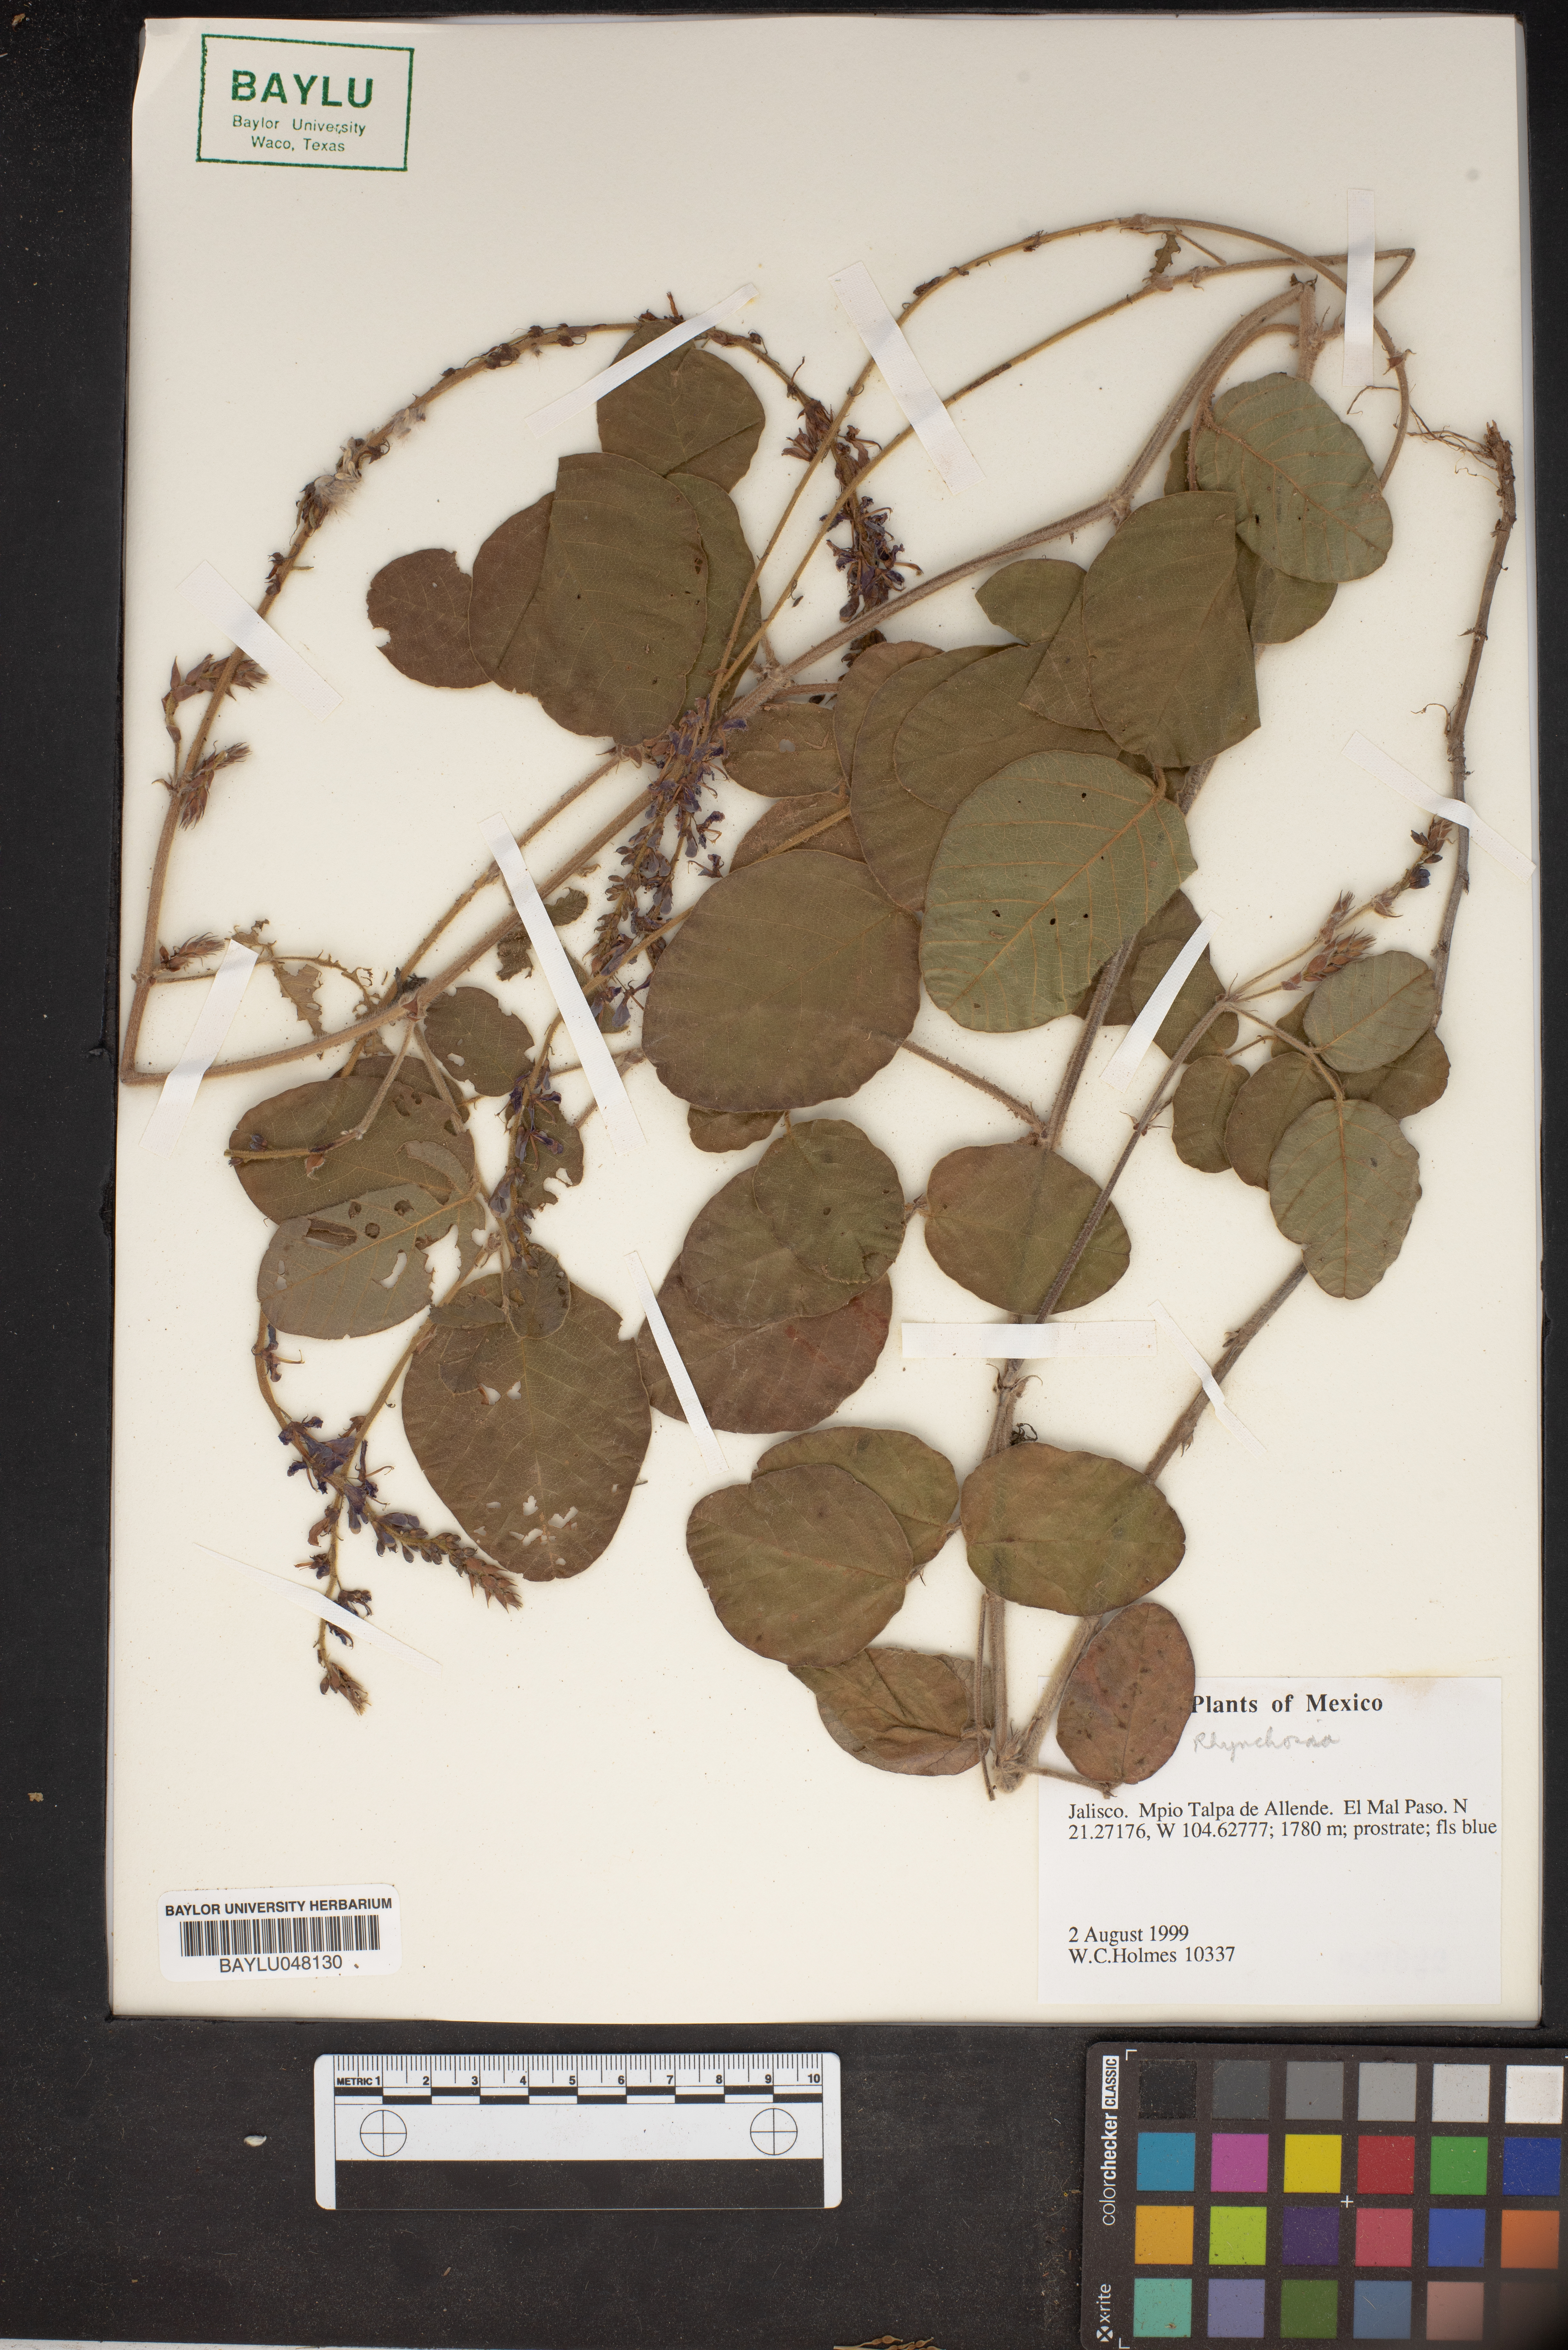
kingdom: Plantae
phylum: Tracheophyta
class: Magnoliopsida
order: Fabales
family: Fabaceae
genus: Rhynchosia
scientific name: Rhynchosia
